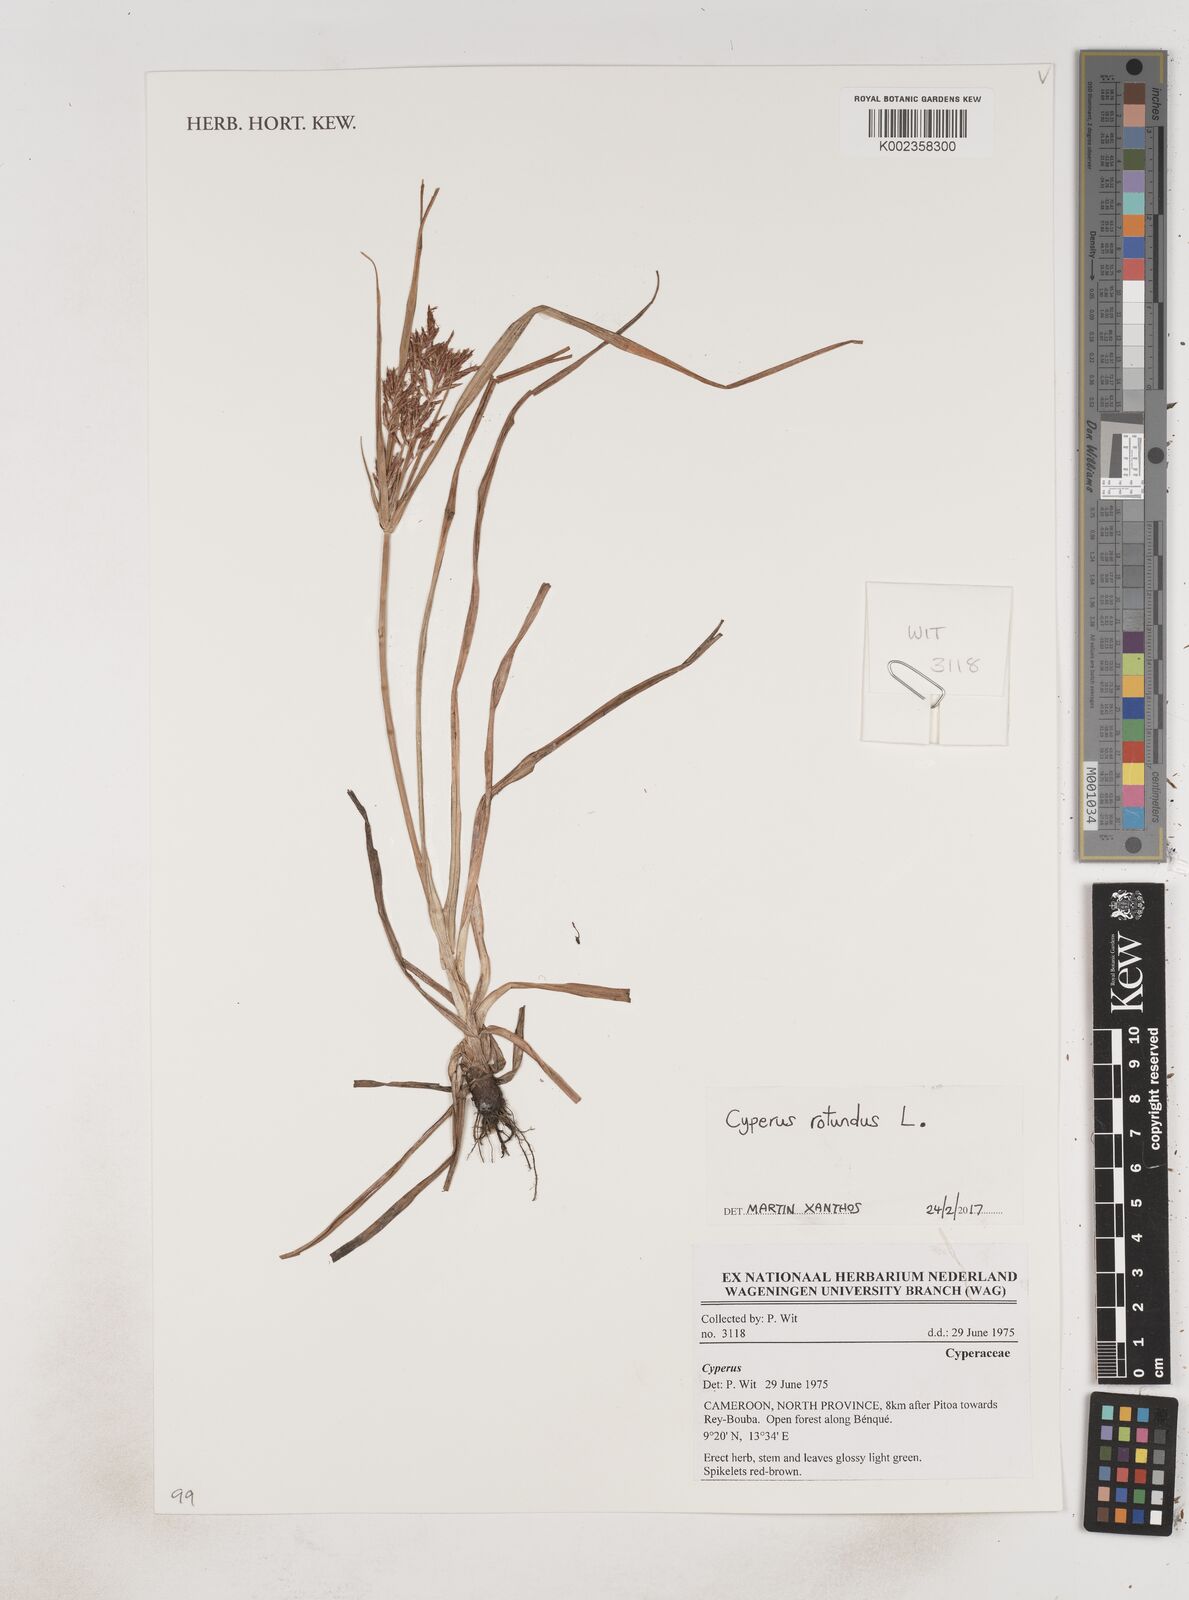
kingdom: Plantae
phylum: Tracheophyta
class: Liliopsida
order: Poales
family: Cyperaceae
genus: Cyperus
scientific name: Cyperus rotundus
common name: Nutgrass
